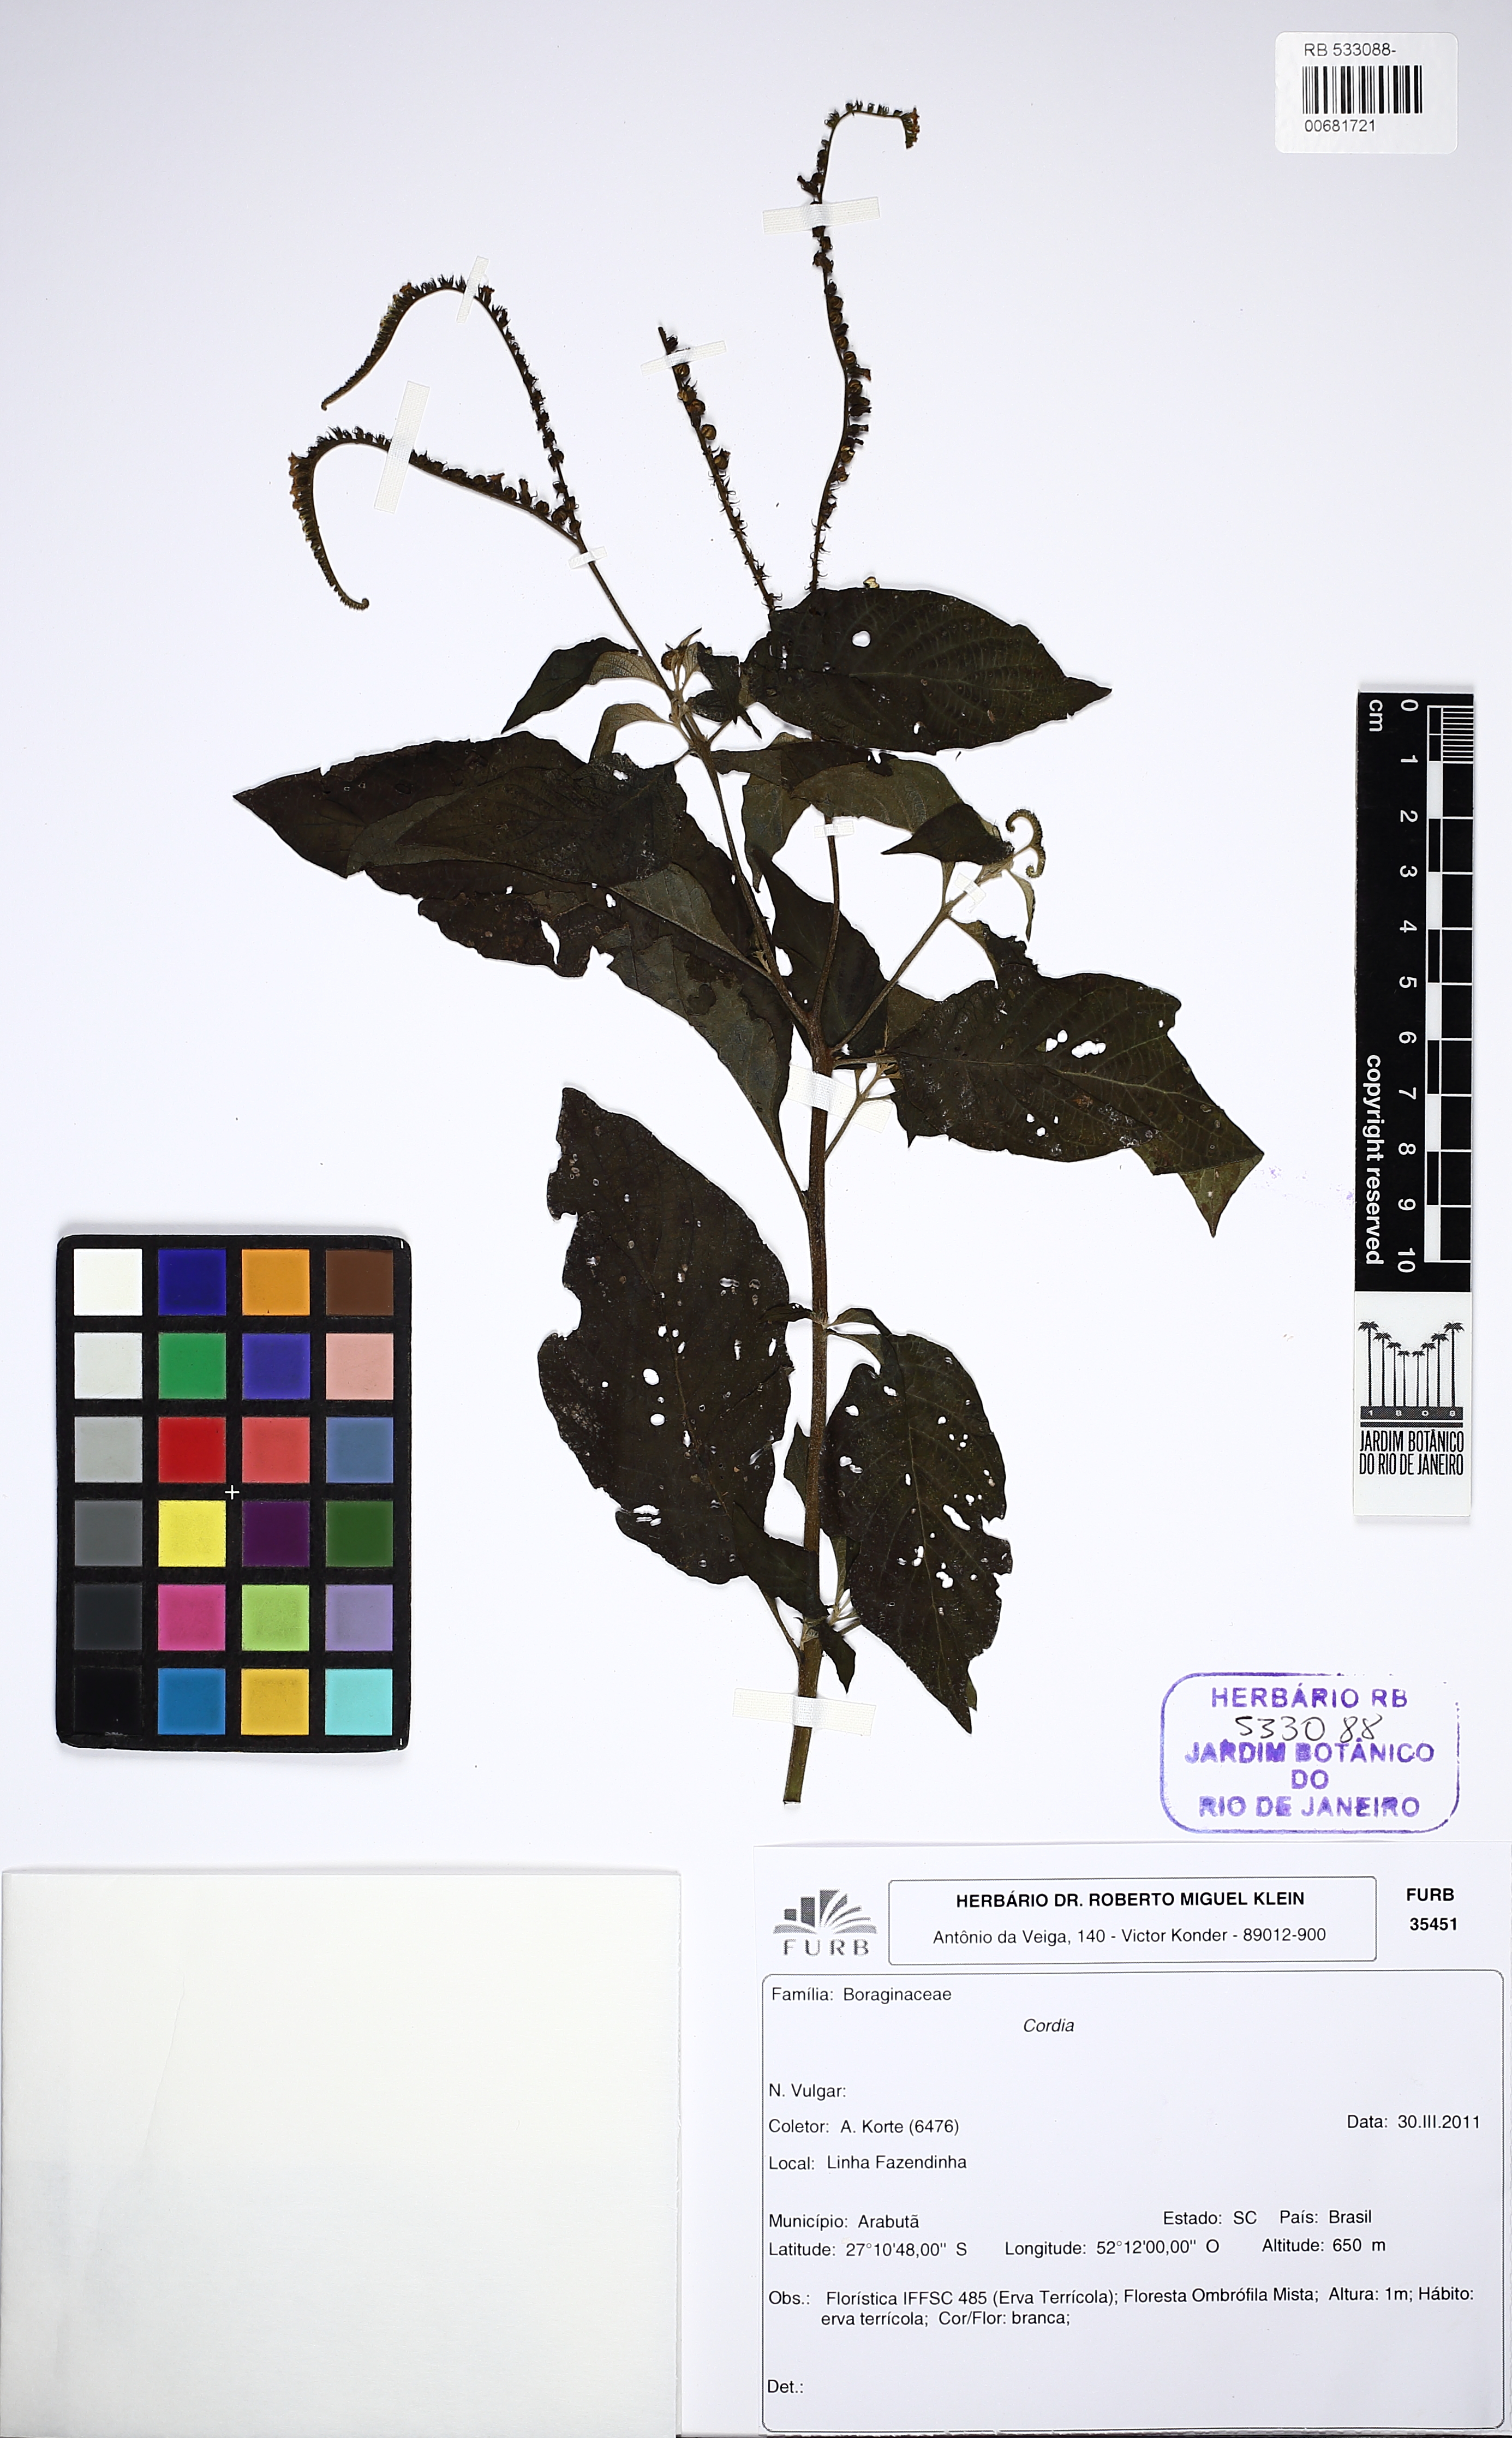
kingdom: Plantae
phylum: Tracheophyta
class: Magnoliopsida
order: Boraginales
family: Cordiaceae
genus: Cordia
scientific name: Cordia
